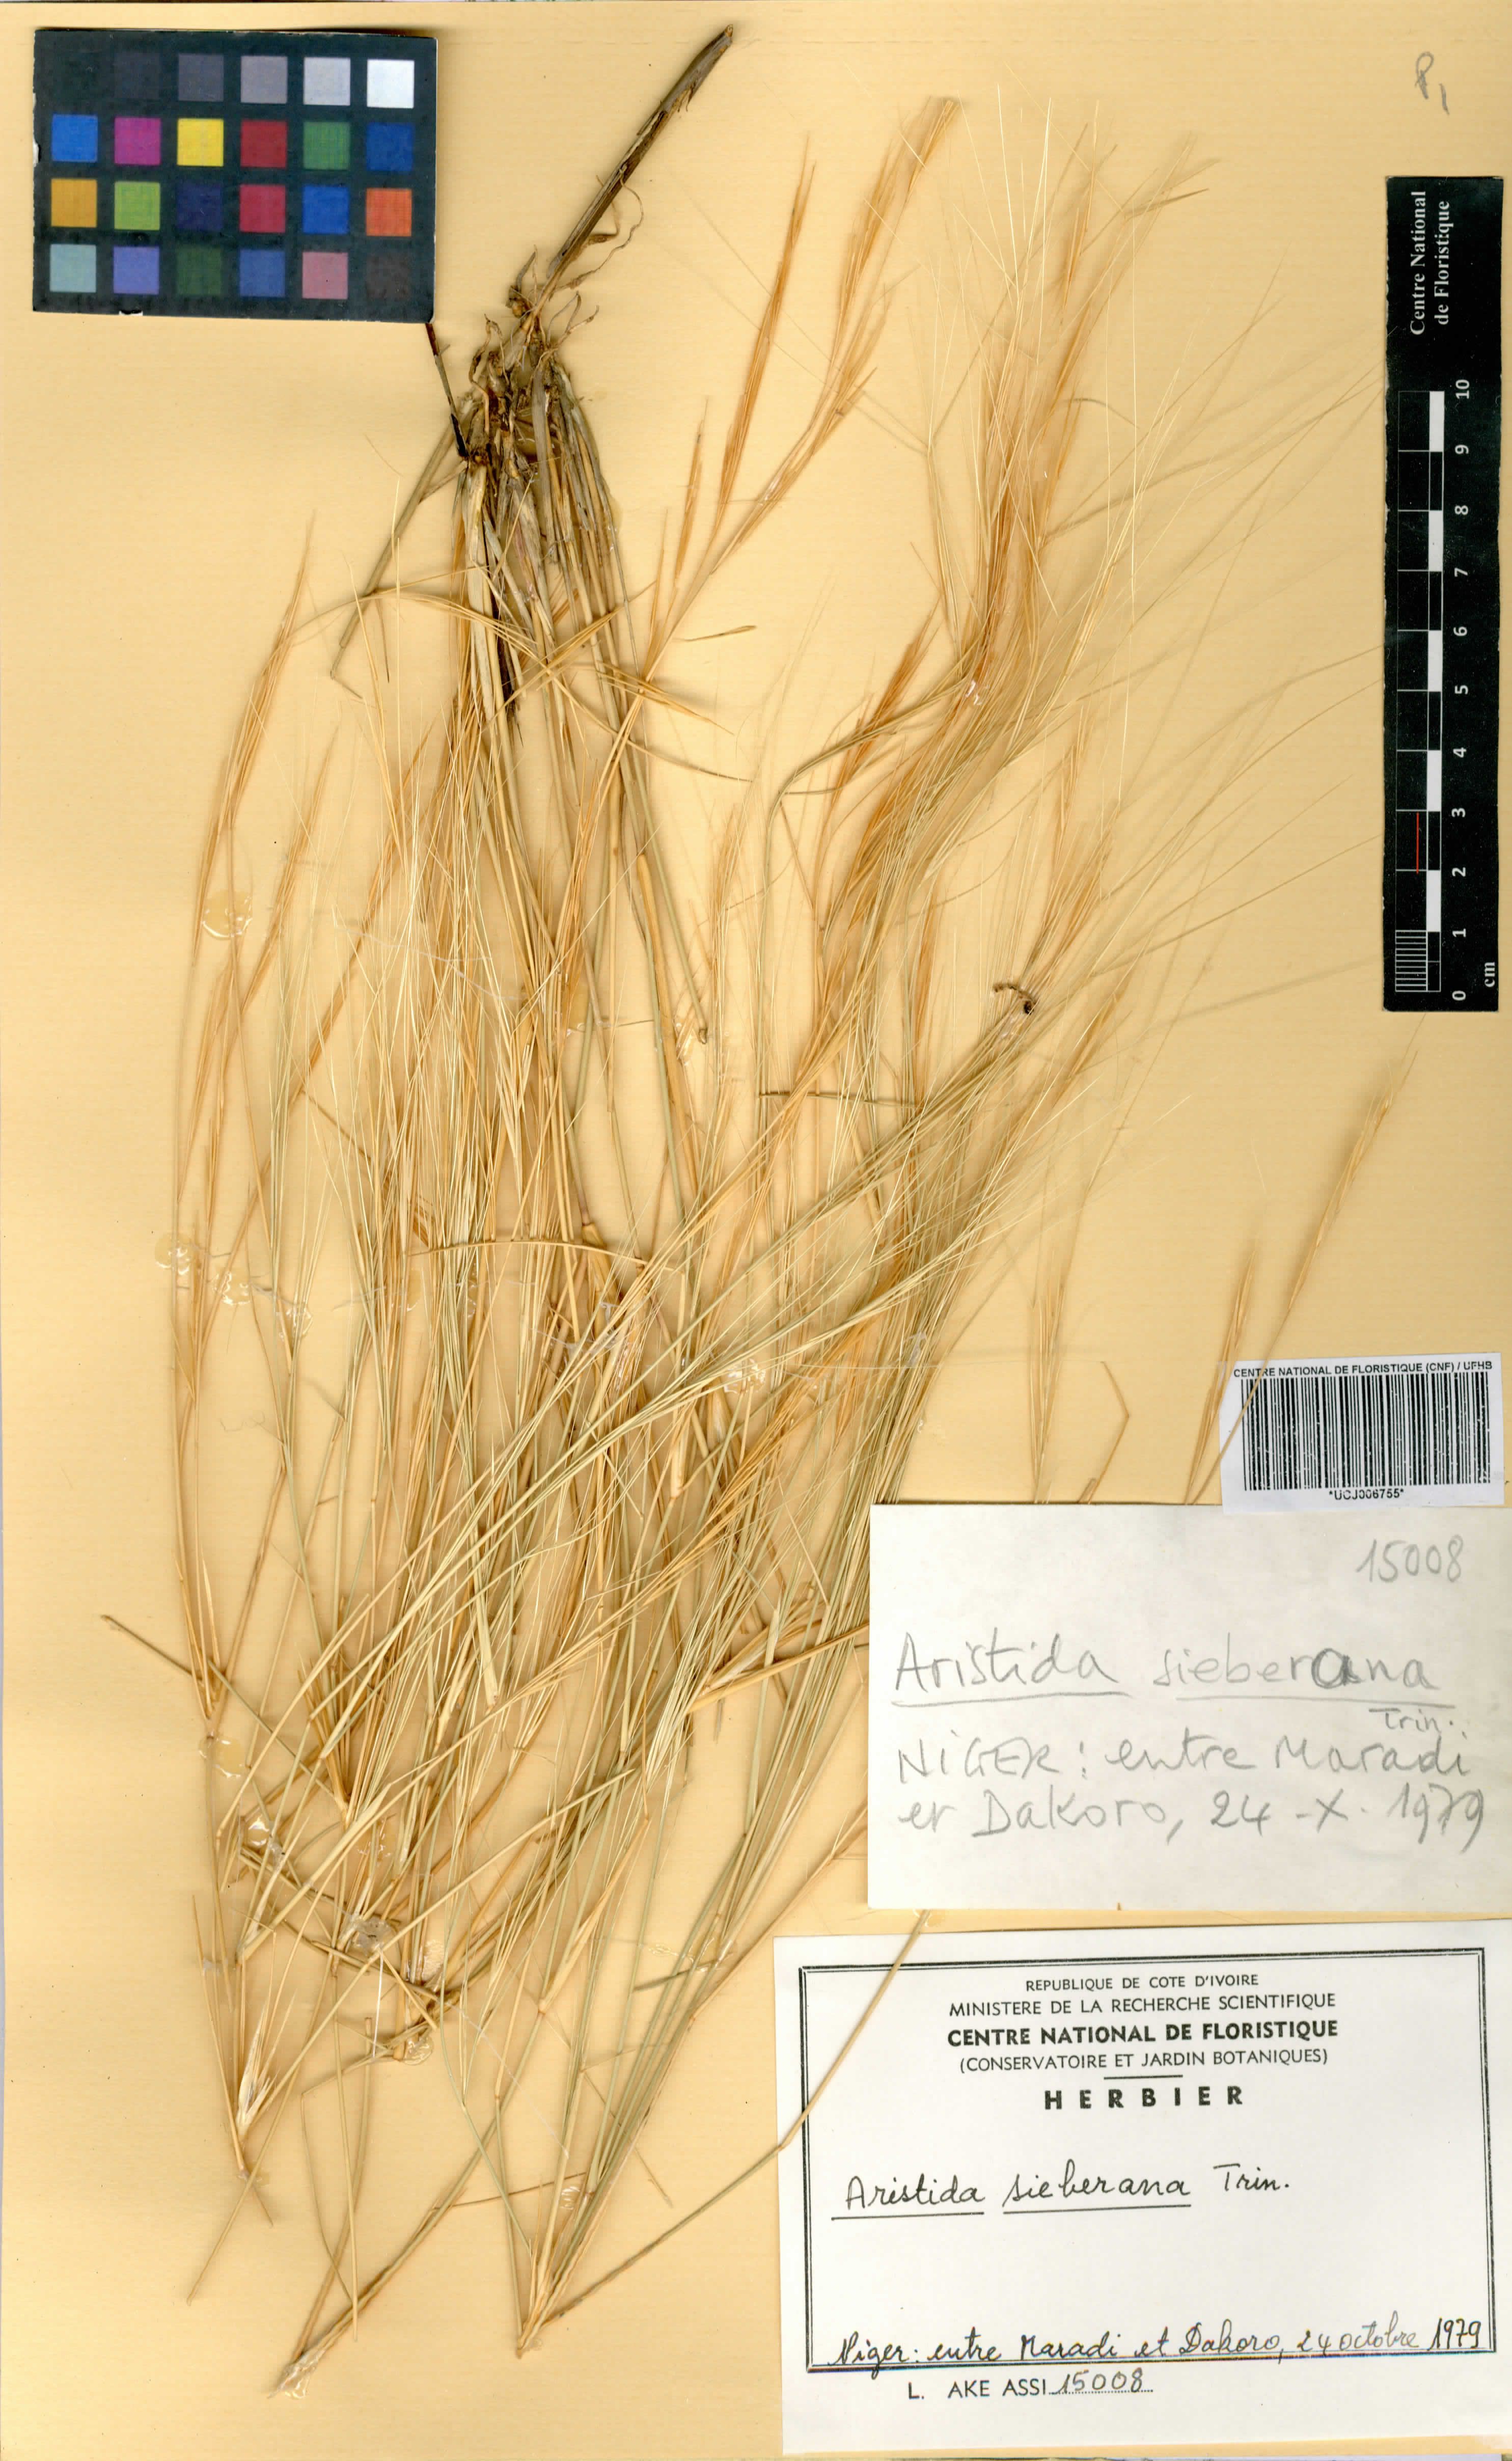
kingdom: Plantae
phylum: Tracheophyta
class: Liliopsida
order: Poales
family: Poaceae
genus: Aristida
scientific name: Aristida sieberiana
